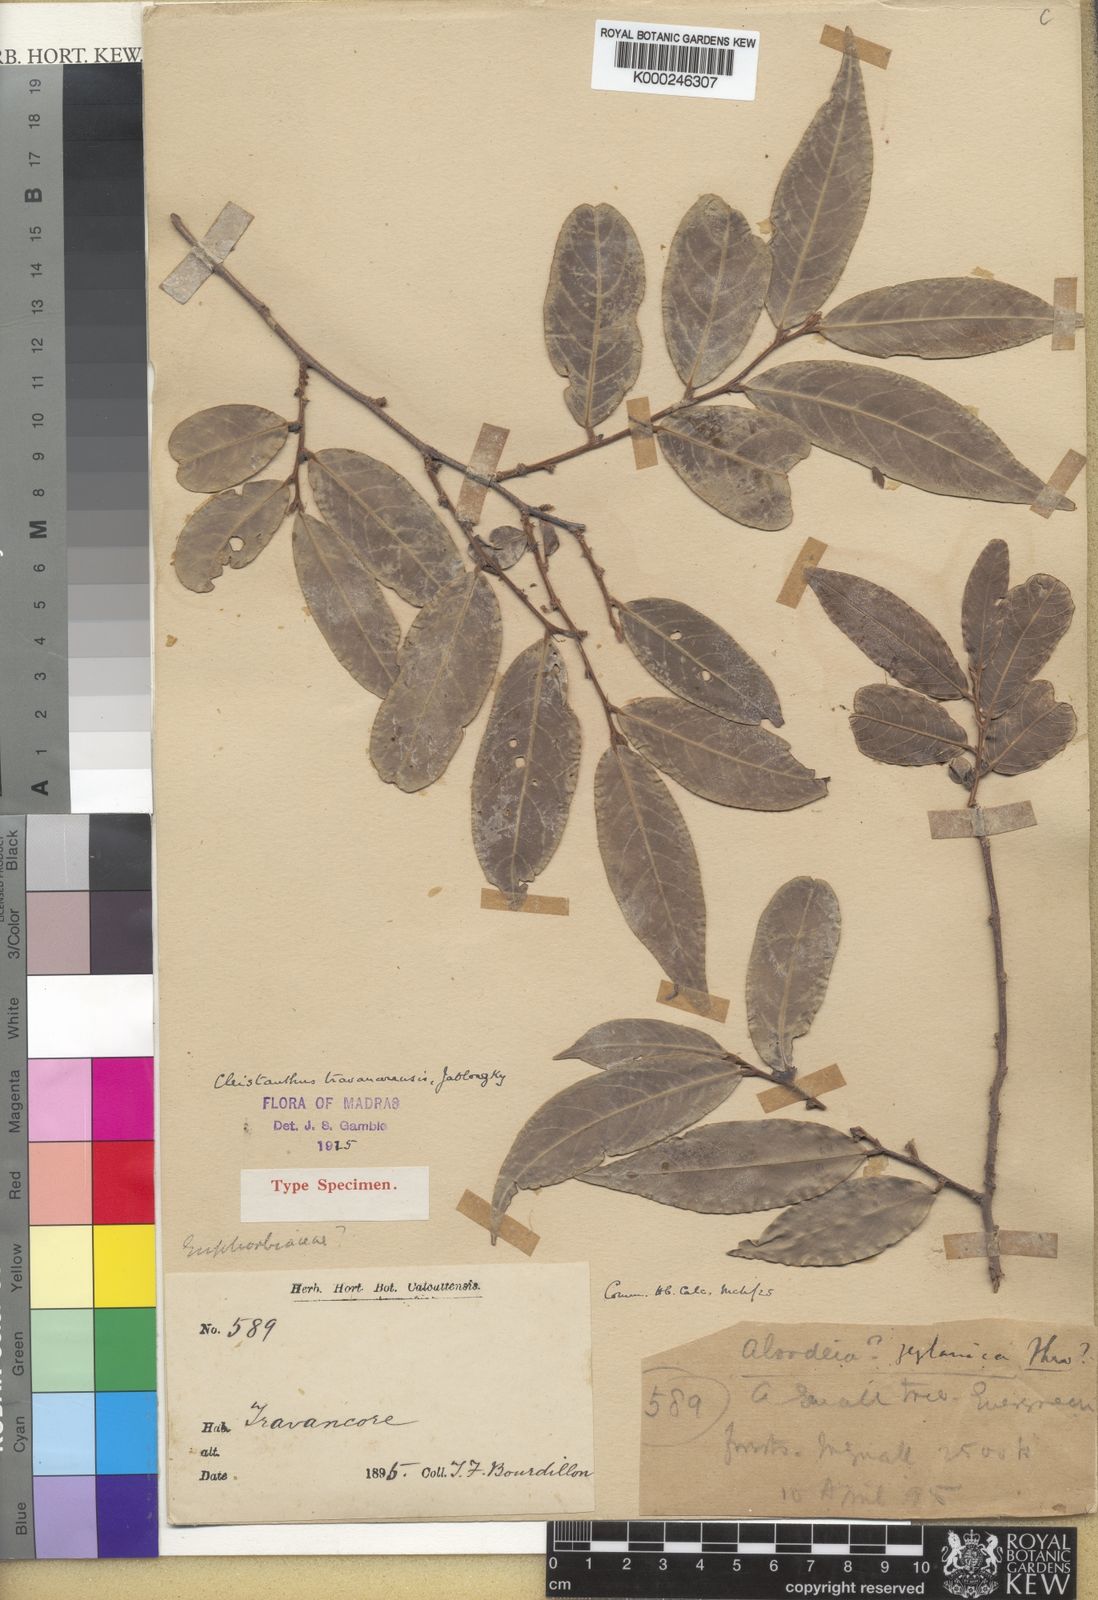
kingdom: Plantae
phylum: Tracheophyta
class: Magnoliopsida
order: Malpighiales
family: Phyllanthaceae
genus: Cleistanthus
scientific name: Cleistanthus travancorensis
